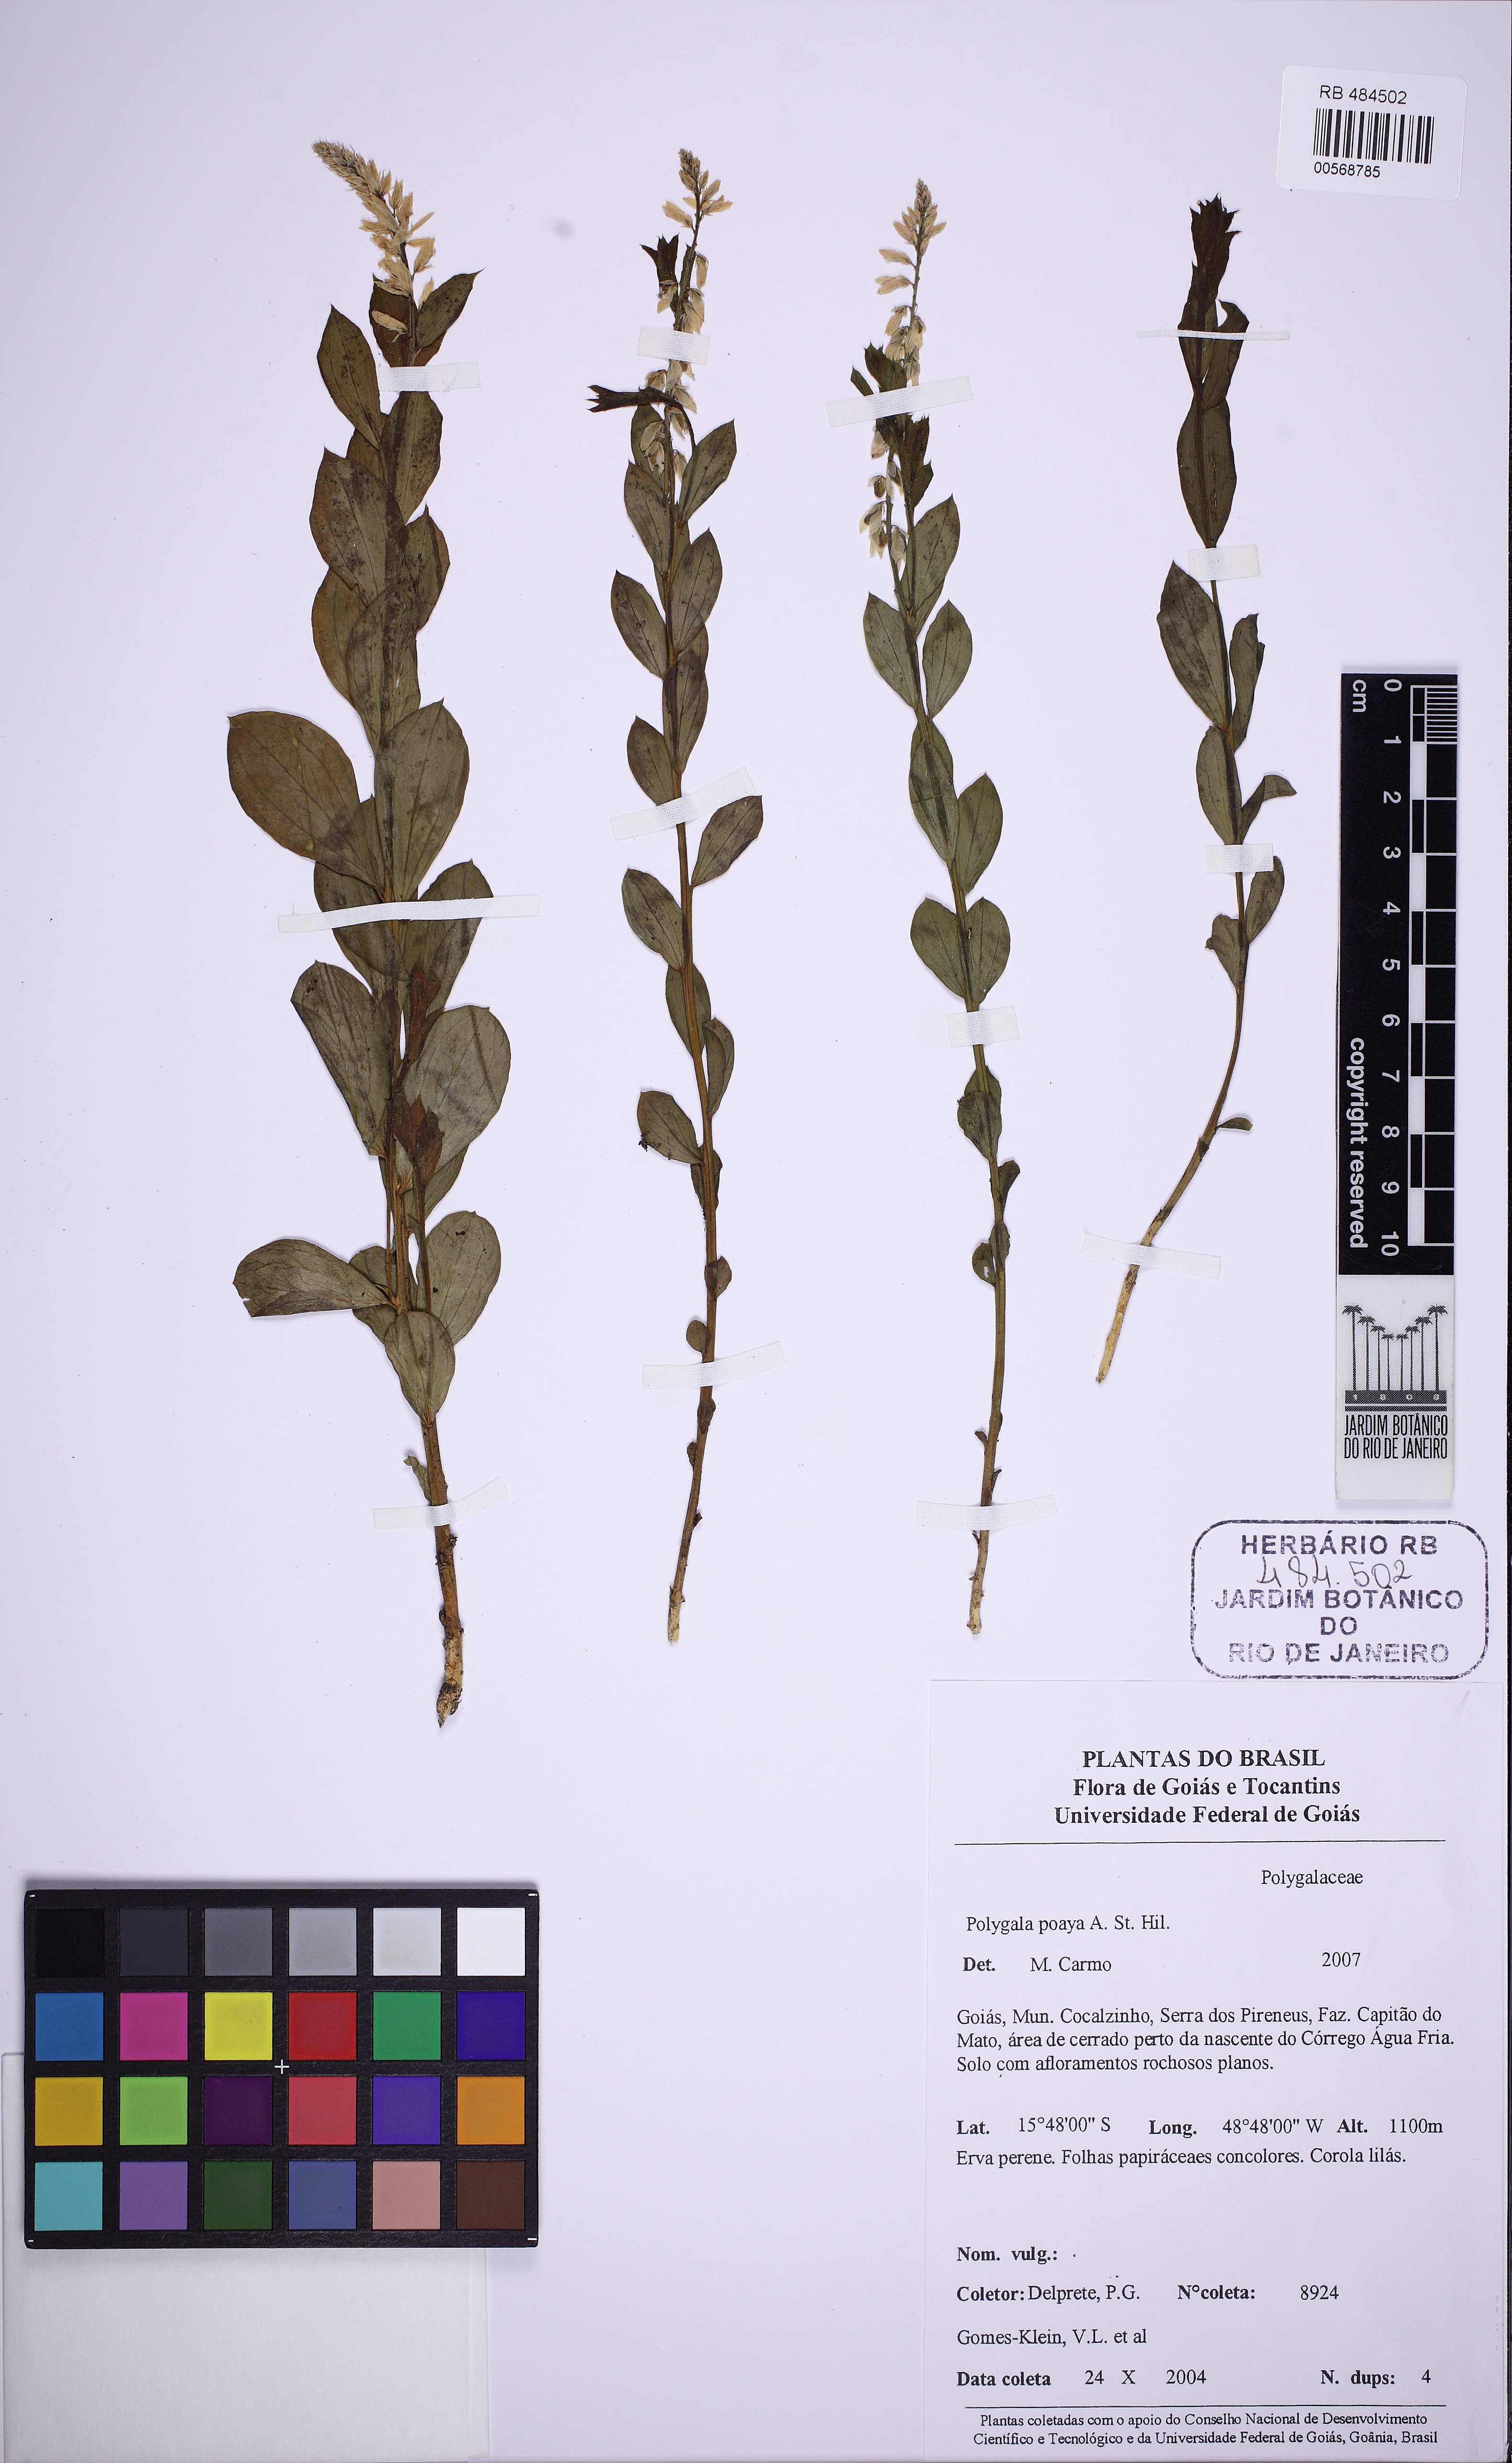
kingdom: Plantae
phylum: Tracheophyta
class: Magnoliopsida
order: Fabales
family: Polygalaceae
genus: Polygala
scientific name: Polygala poaya
